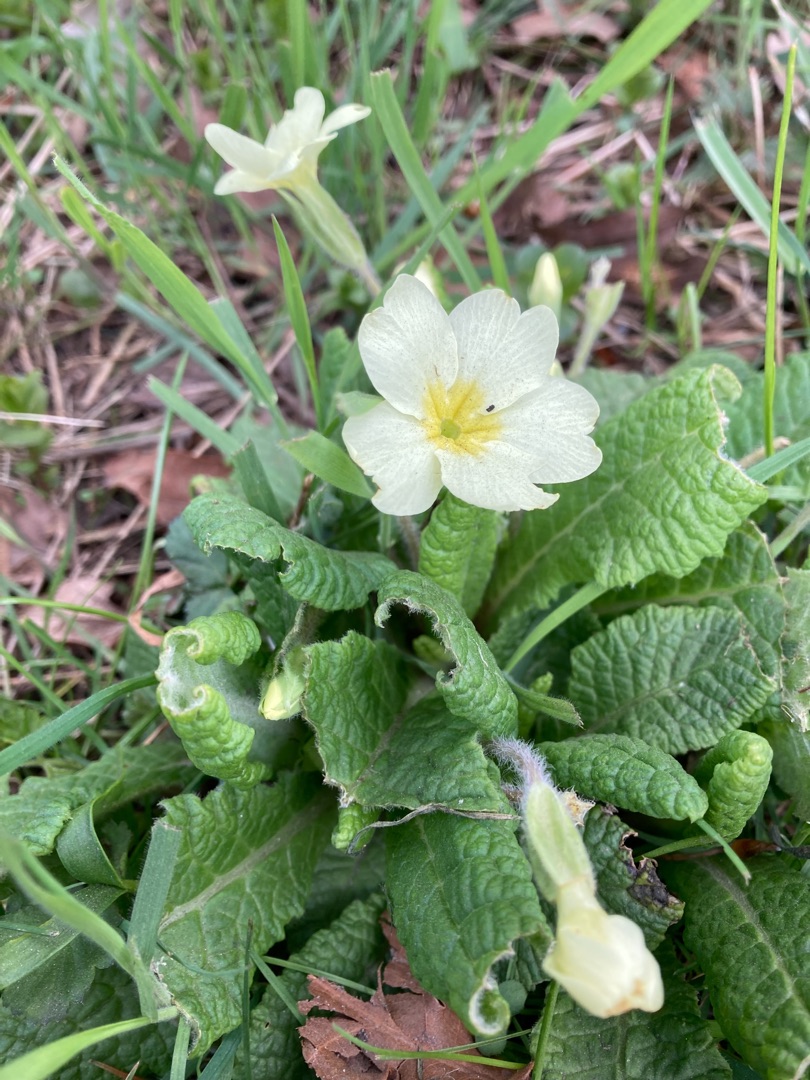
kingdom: Plantae
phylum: Tracheophyta
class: Magnoliopsida
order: Ericales
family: Primulaceae
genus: Primula
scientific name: Primula vulgaris
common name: Storblomstret kodriver
